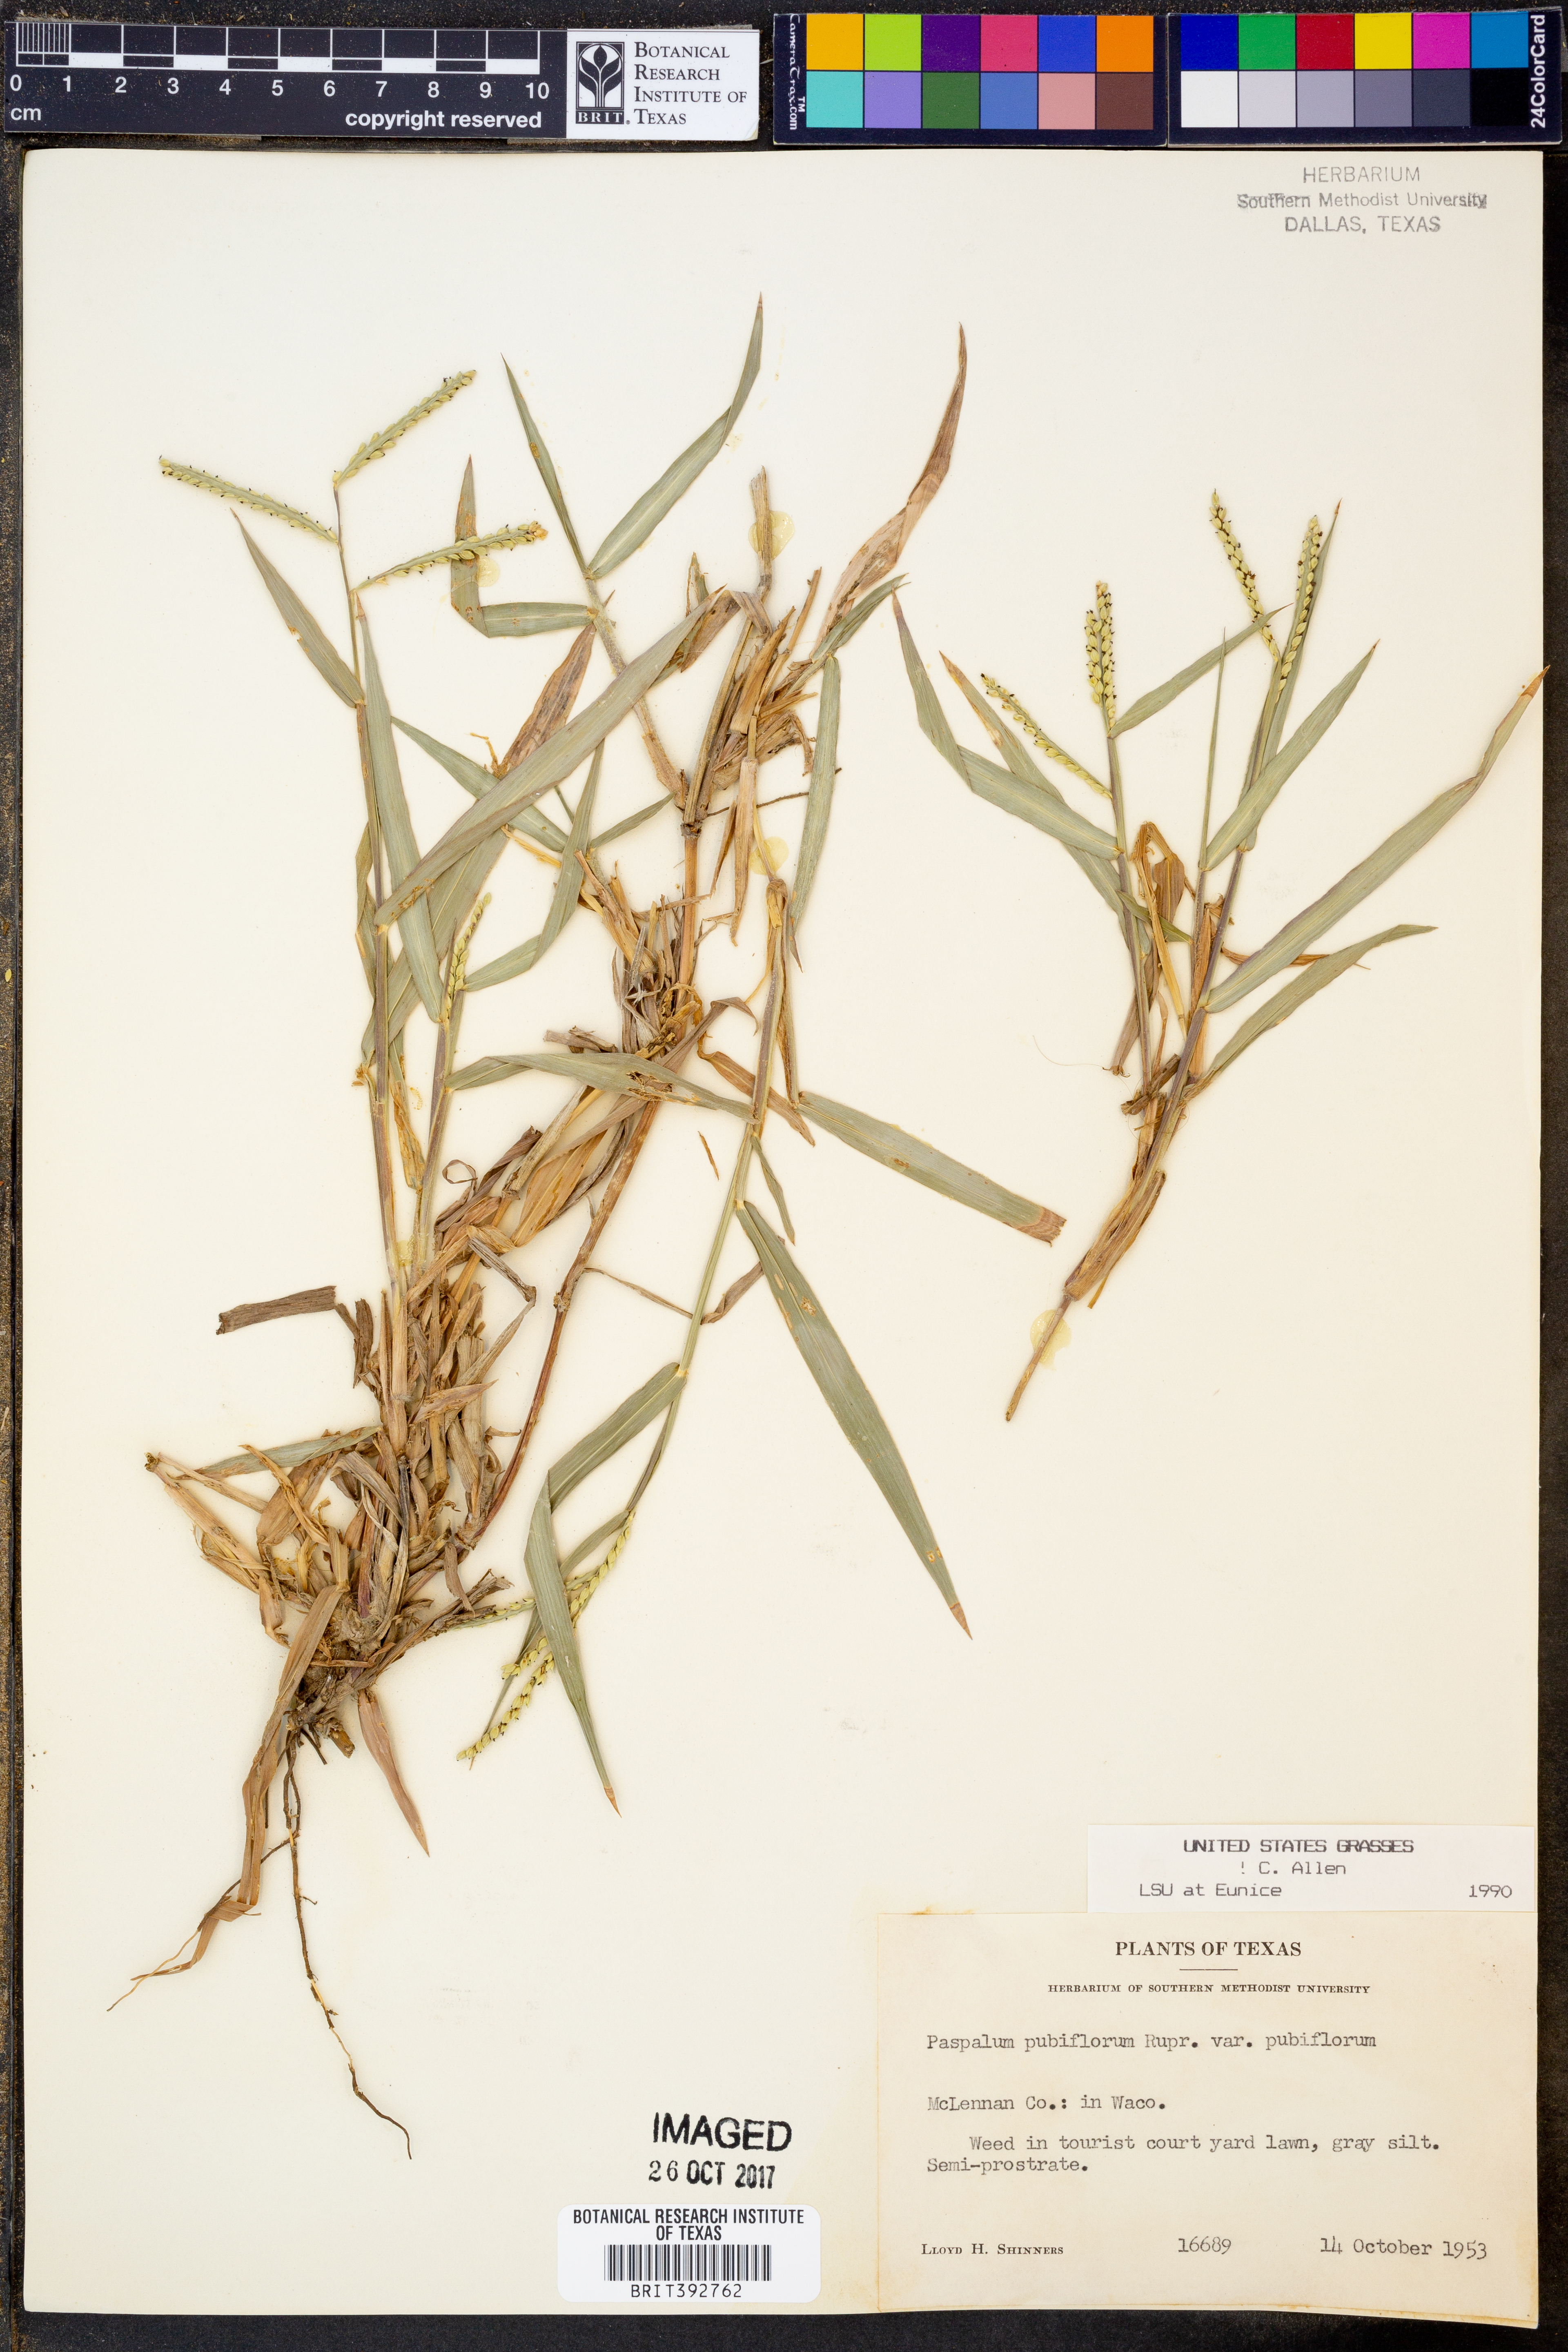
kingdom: Plantae
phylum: Tracheophyta
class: Liliopsida
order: Poales
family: Poaceae
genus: Paspalum
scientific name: Paspalum pubiflorum
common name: Hairy-seed paspalum
